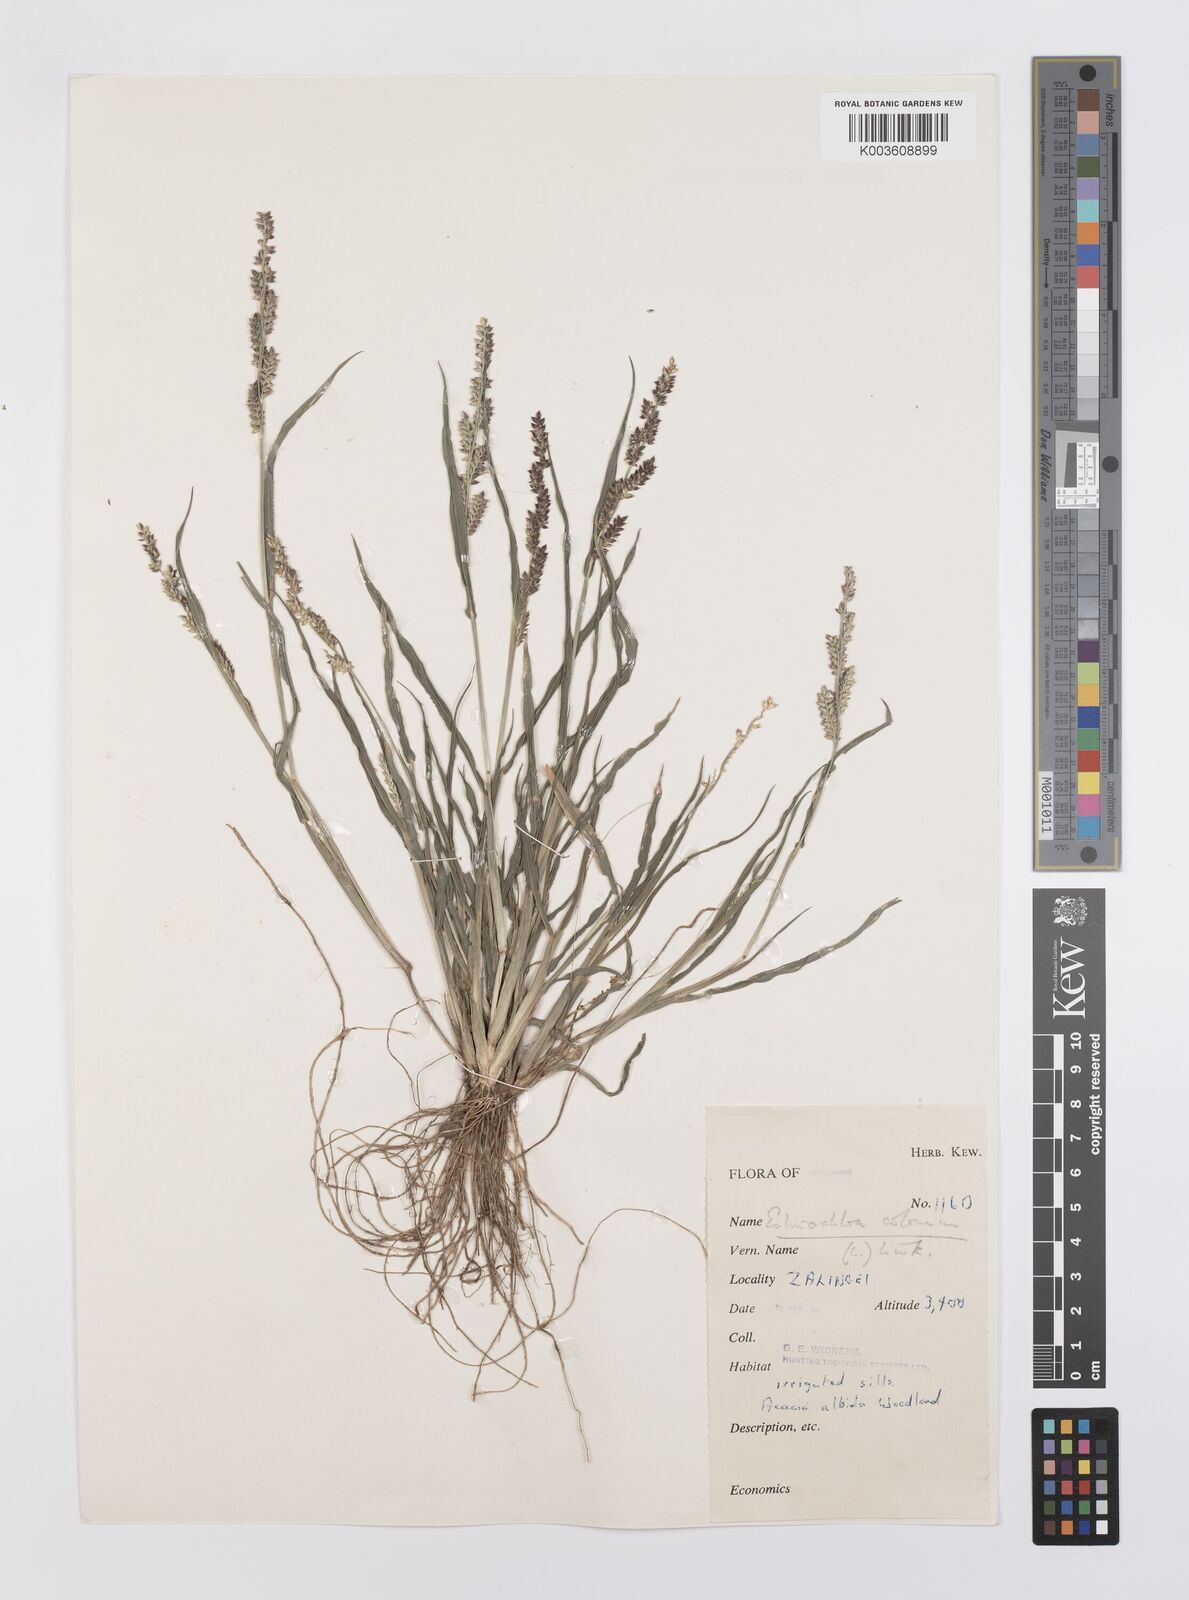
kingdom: Plantae
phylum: Tracheophyta
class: Liliopsida
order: Poales
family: Poaceae
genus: Echinochloa
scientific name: Echinochloa colonum
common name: Jungle rice
